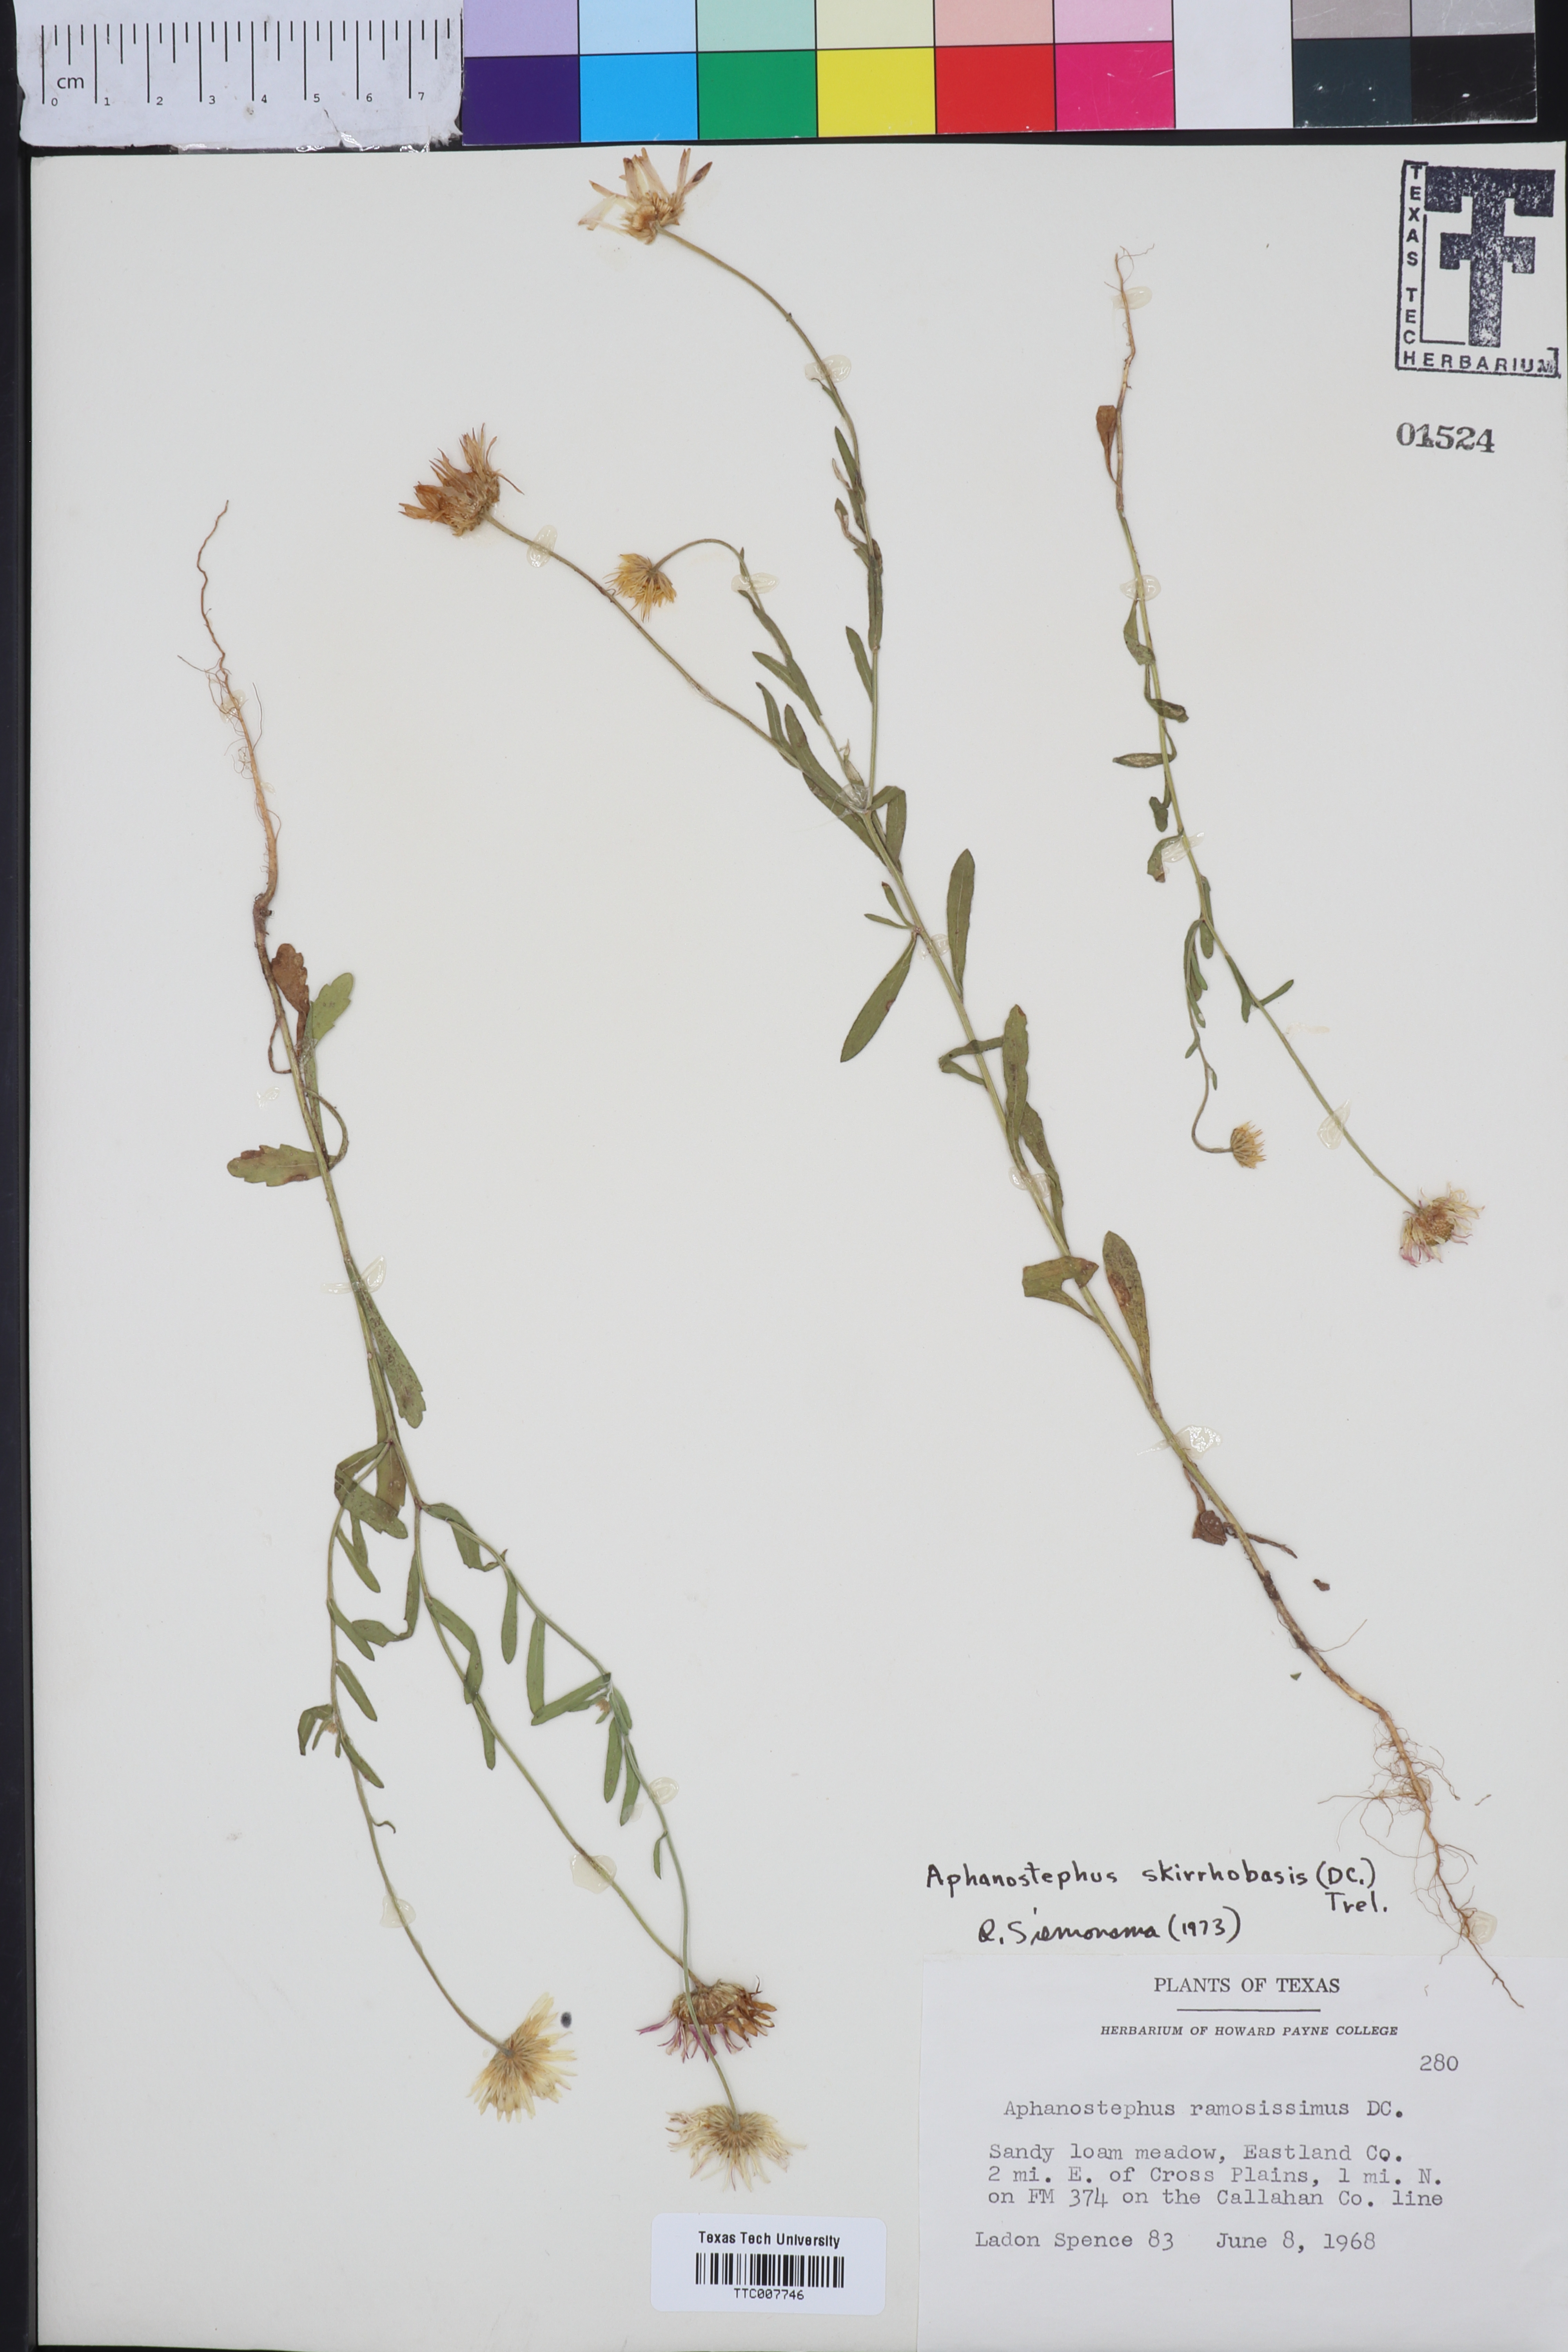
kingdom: Plantae
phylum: Tracheophyta
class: Magnoliopsida
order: Asterales
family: Asteraceae
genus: Aphanostephus
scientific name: Aphanostephus skirrhobasis
